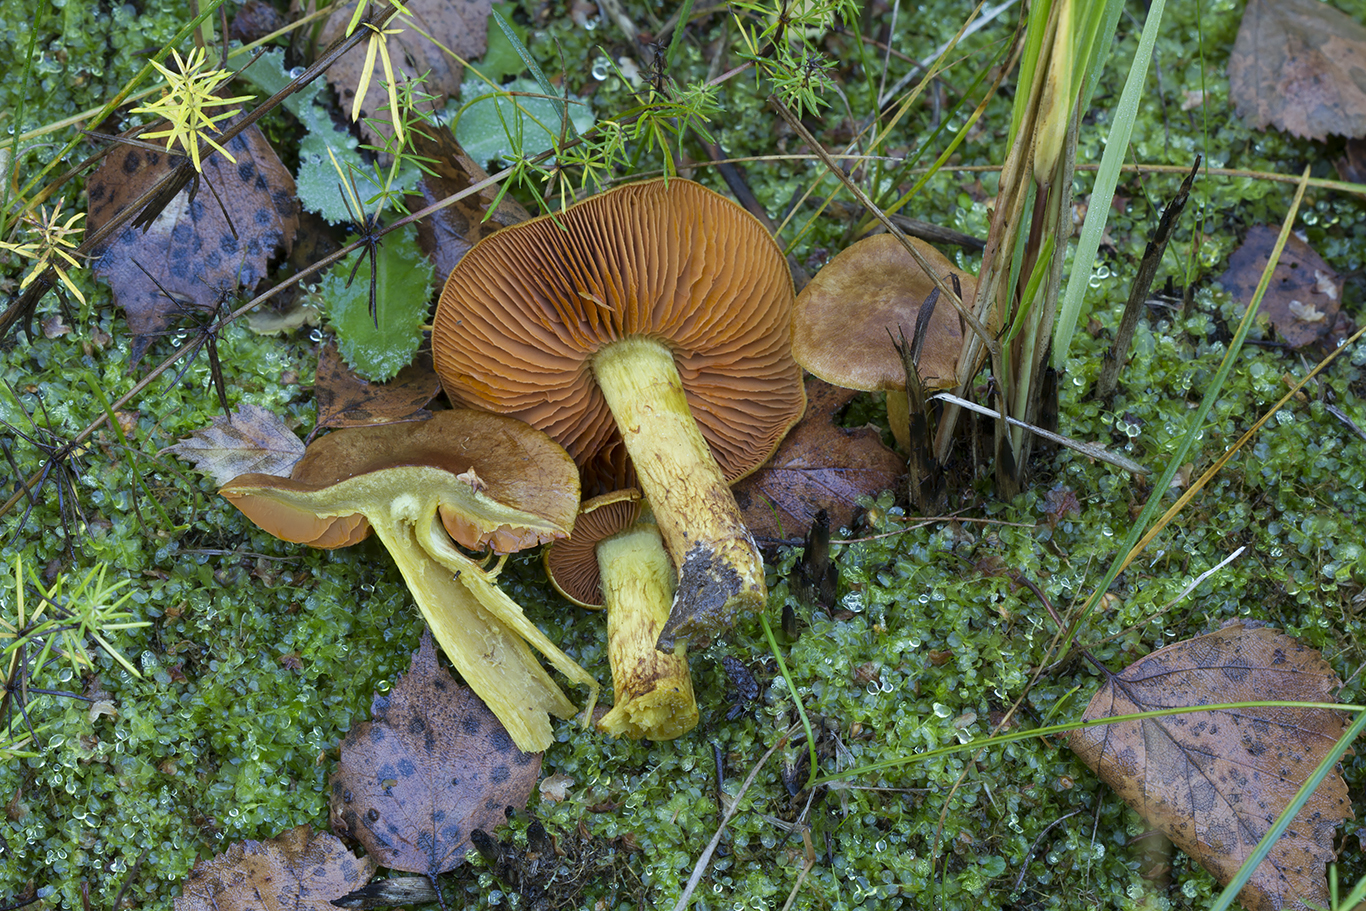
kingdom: Fungi
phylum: Basidiomycota
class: Agaricomycetes
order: Agaricales
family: Cortinariaceae
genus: Cortinarius
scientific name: Cortinarius malicorius
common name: grønkødet slørhat
